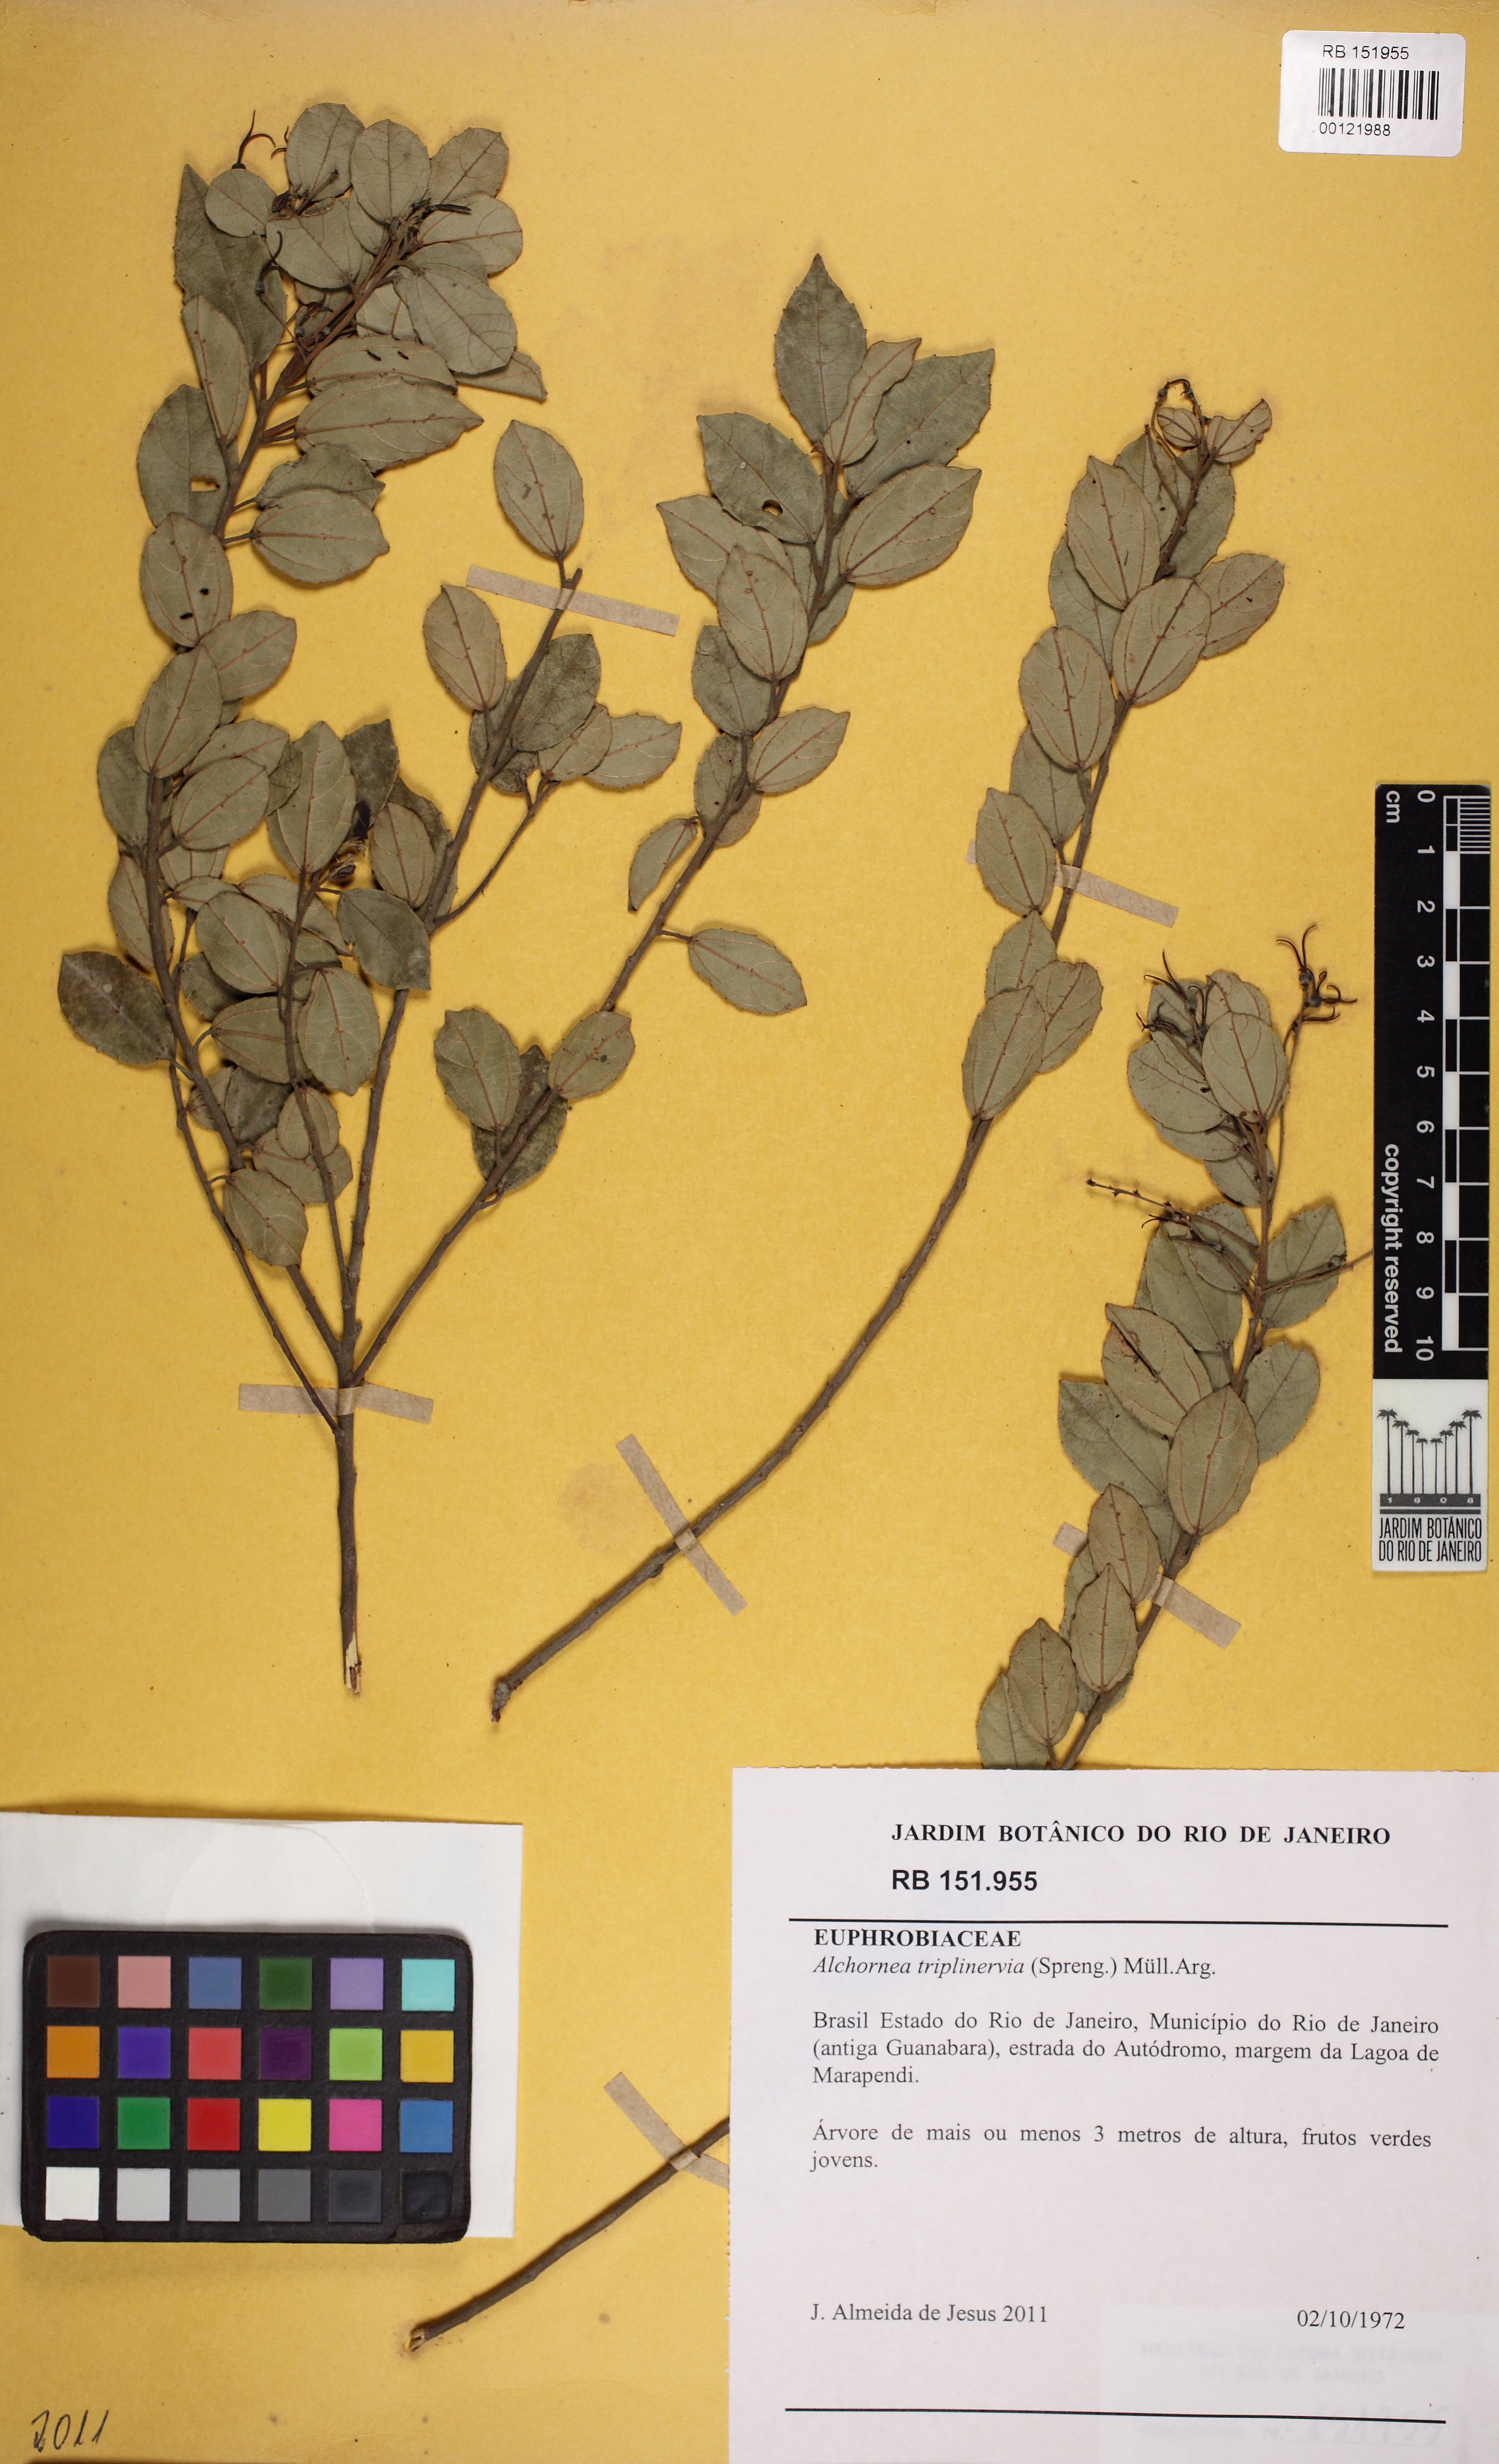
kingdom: Plantae
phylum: Tracheophyta
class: Magnoliopsida
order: Malpighiales
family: Euphorbiaceae
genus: Alchornea
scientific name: Alchornea triplinervia
